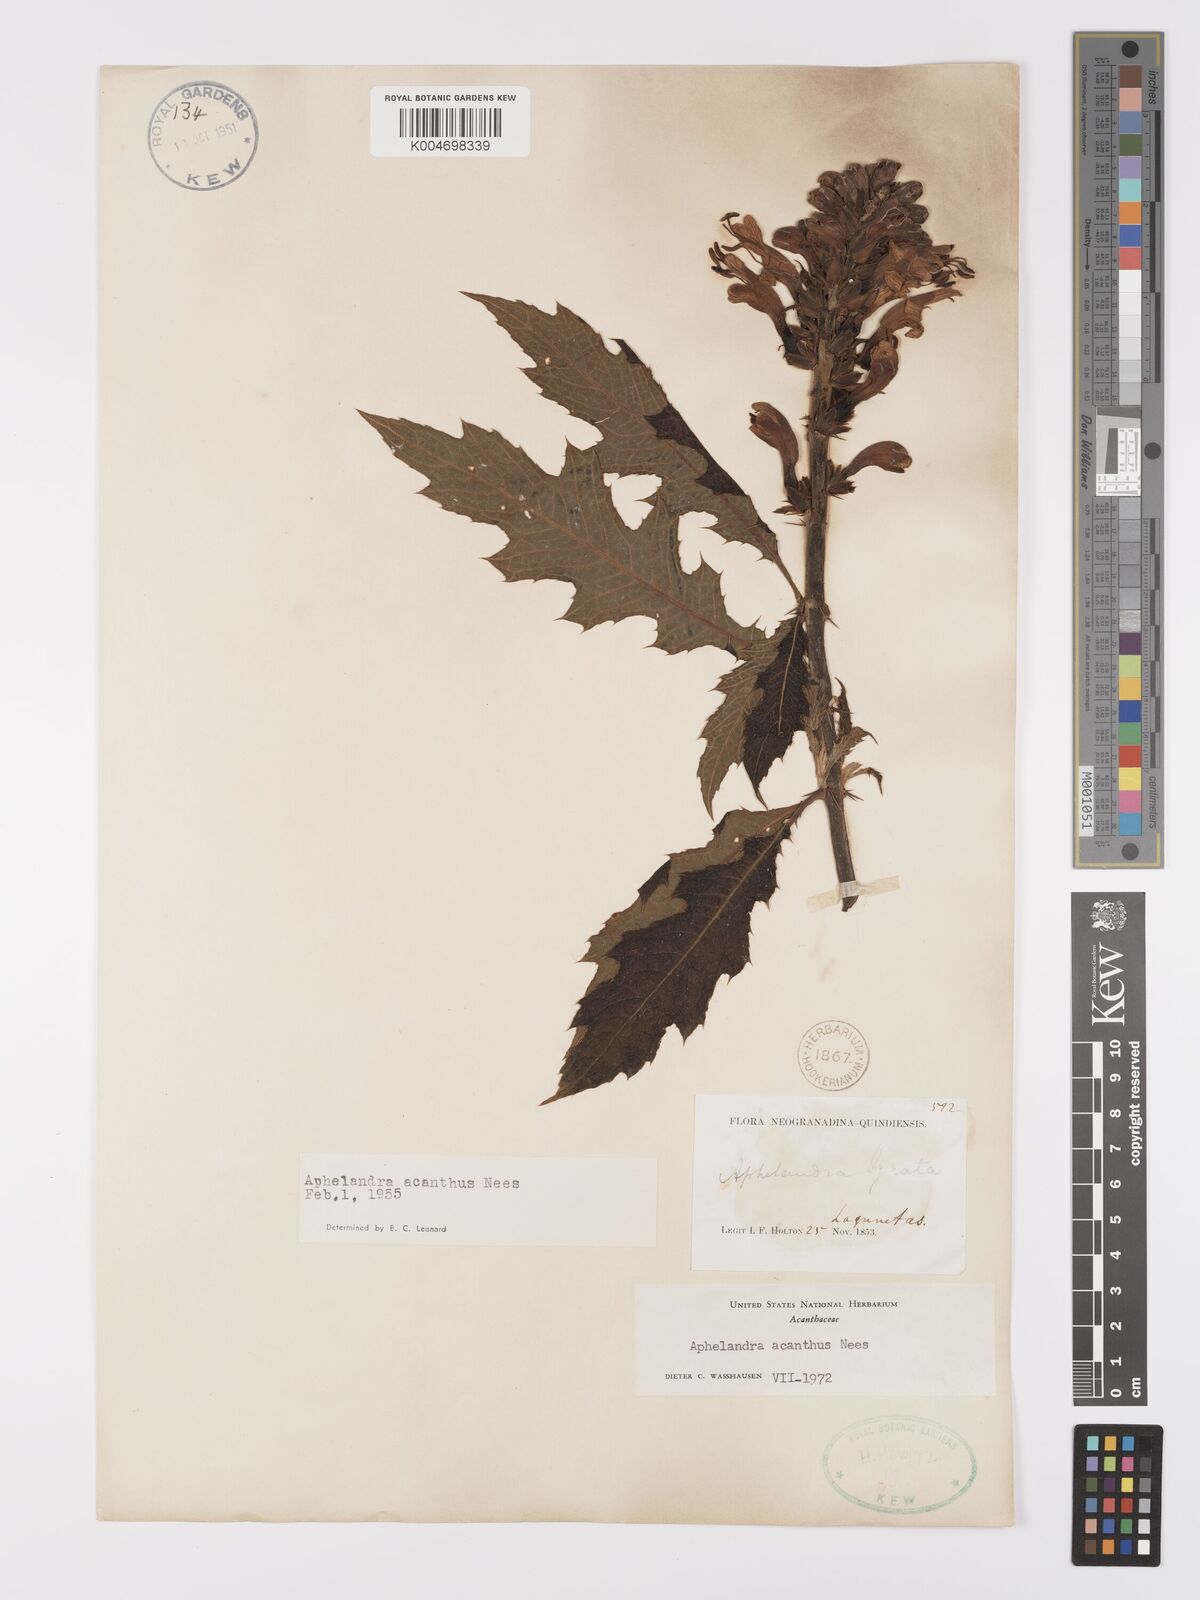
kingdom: Plantae
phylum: Tracheophyta
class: Magnoliopsida
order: Lamiales
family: Acanthaceae
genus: Aphelandra
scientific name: Aphelandra runcinata
